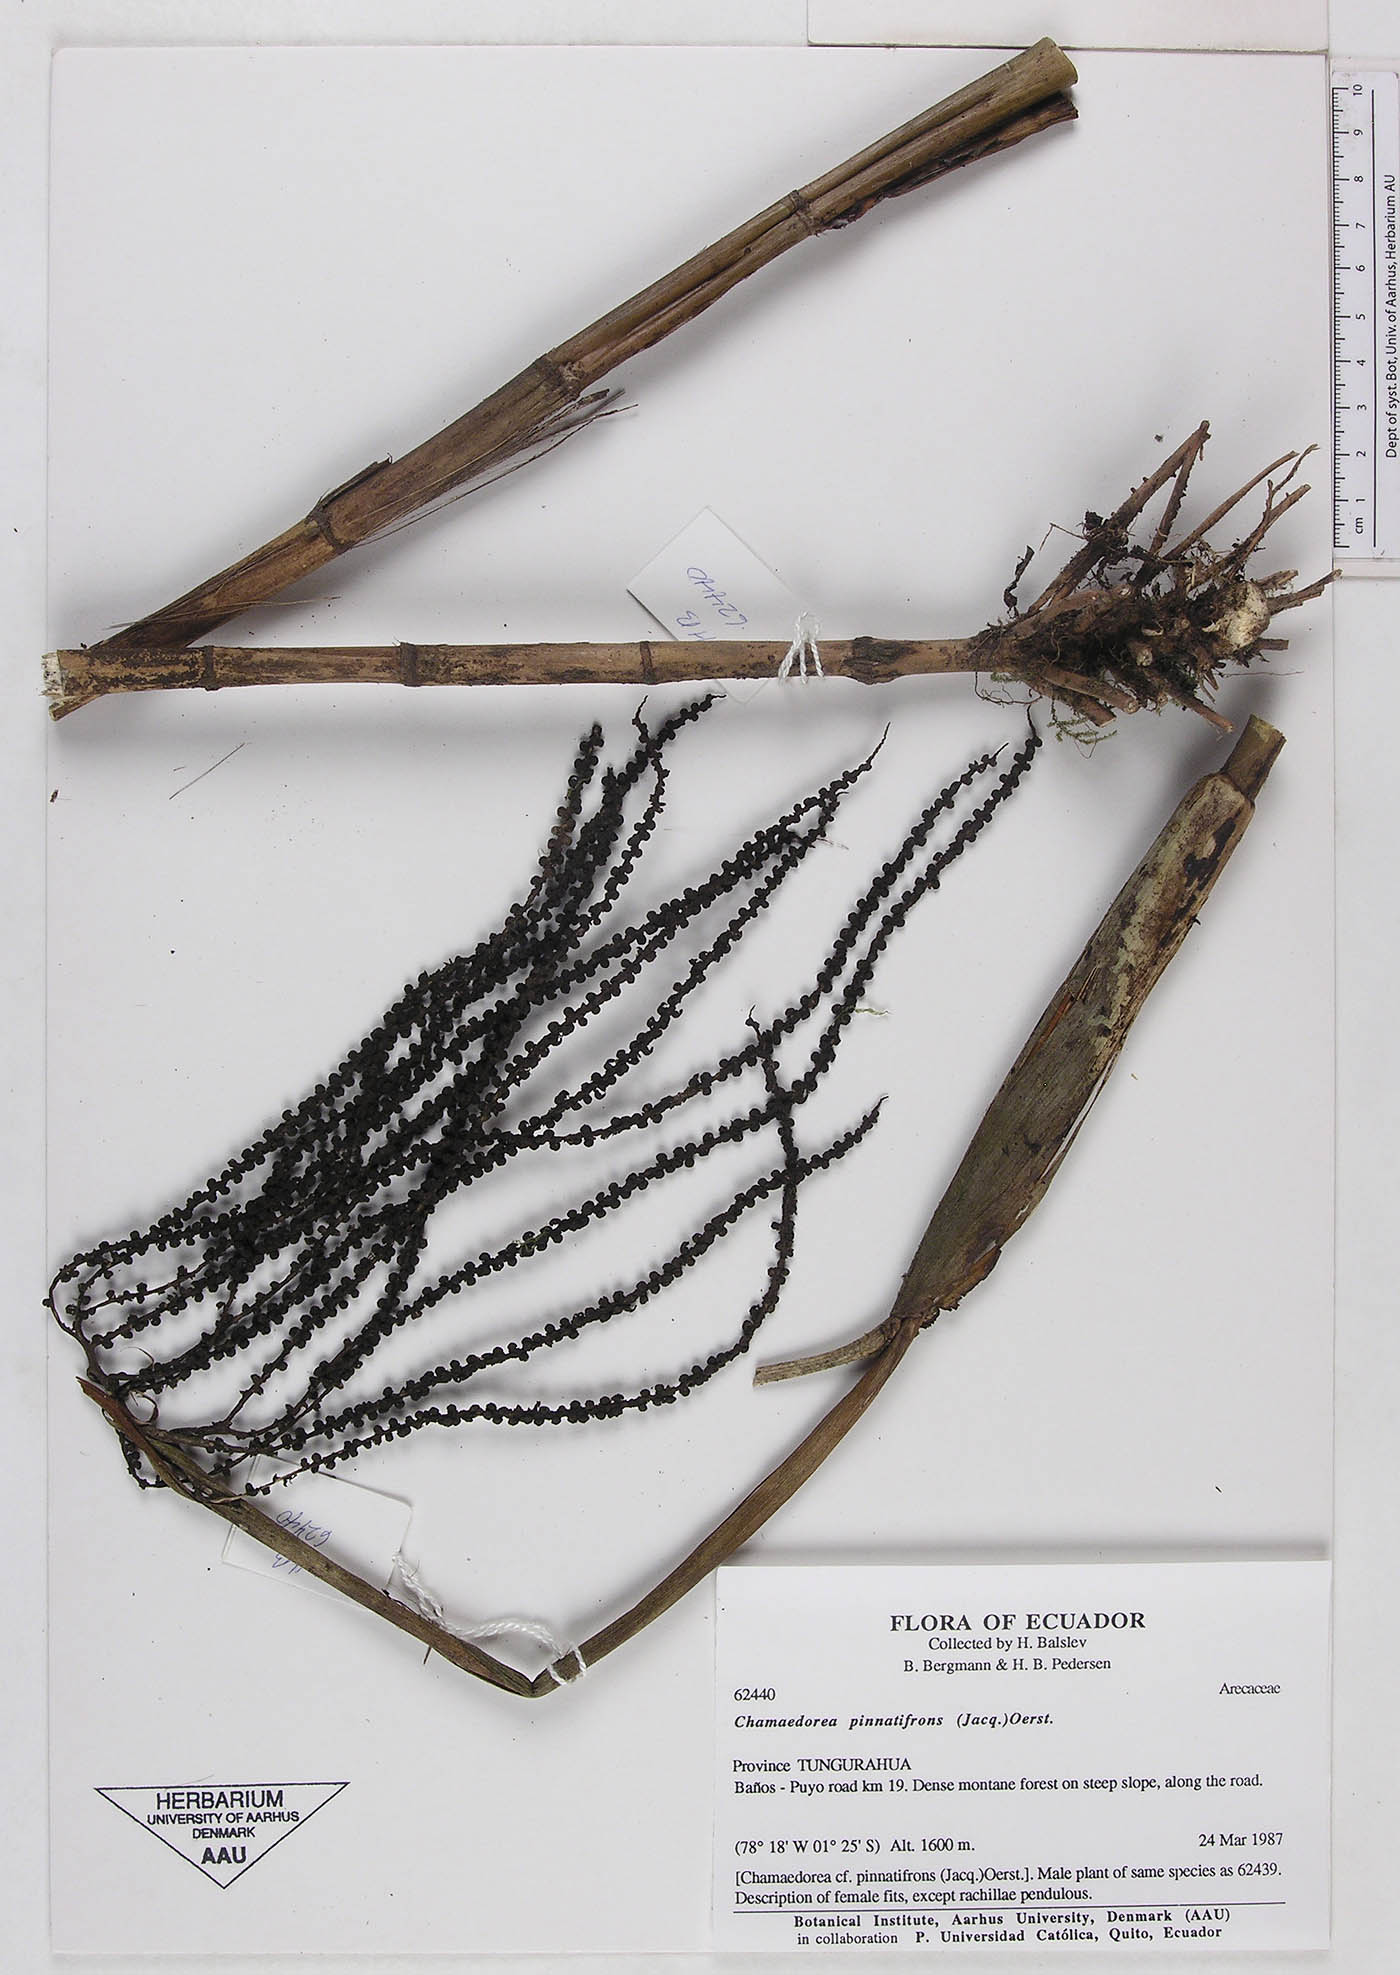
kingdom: Plantae
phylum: Tracheophyta
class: Liliopsida
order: Arecales
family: Arecaceae
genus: Chamaedorea
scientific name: Chamaedorea pinnatifrons
